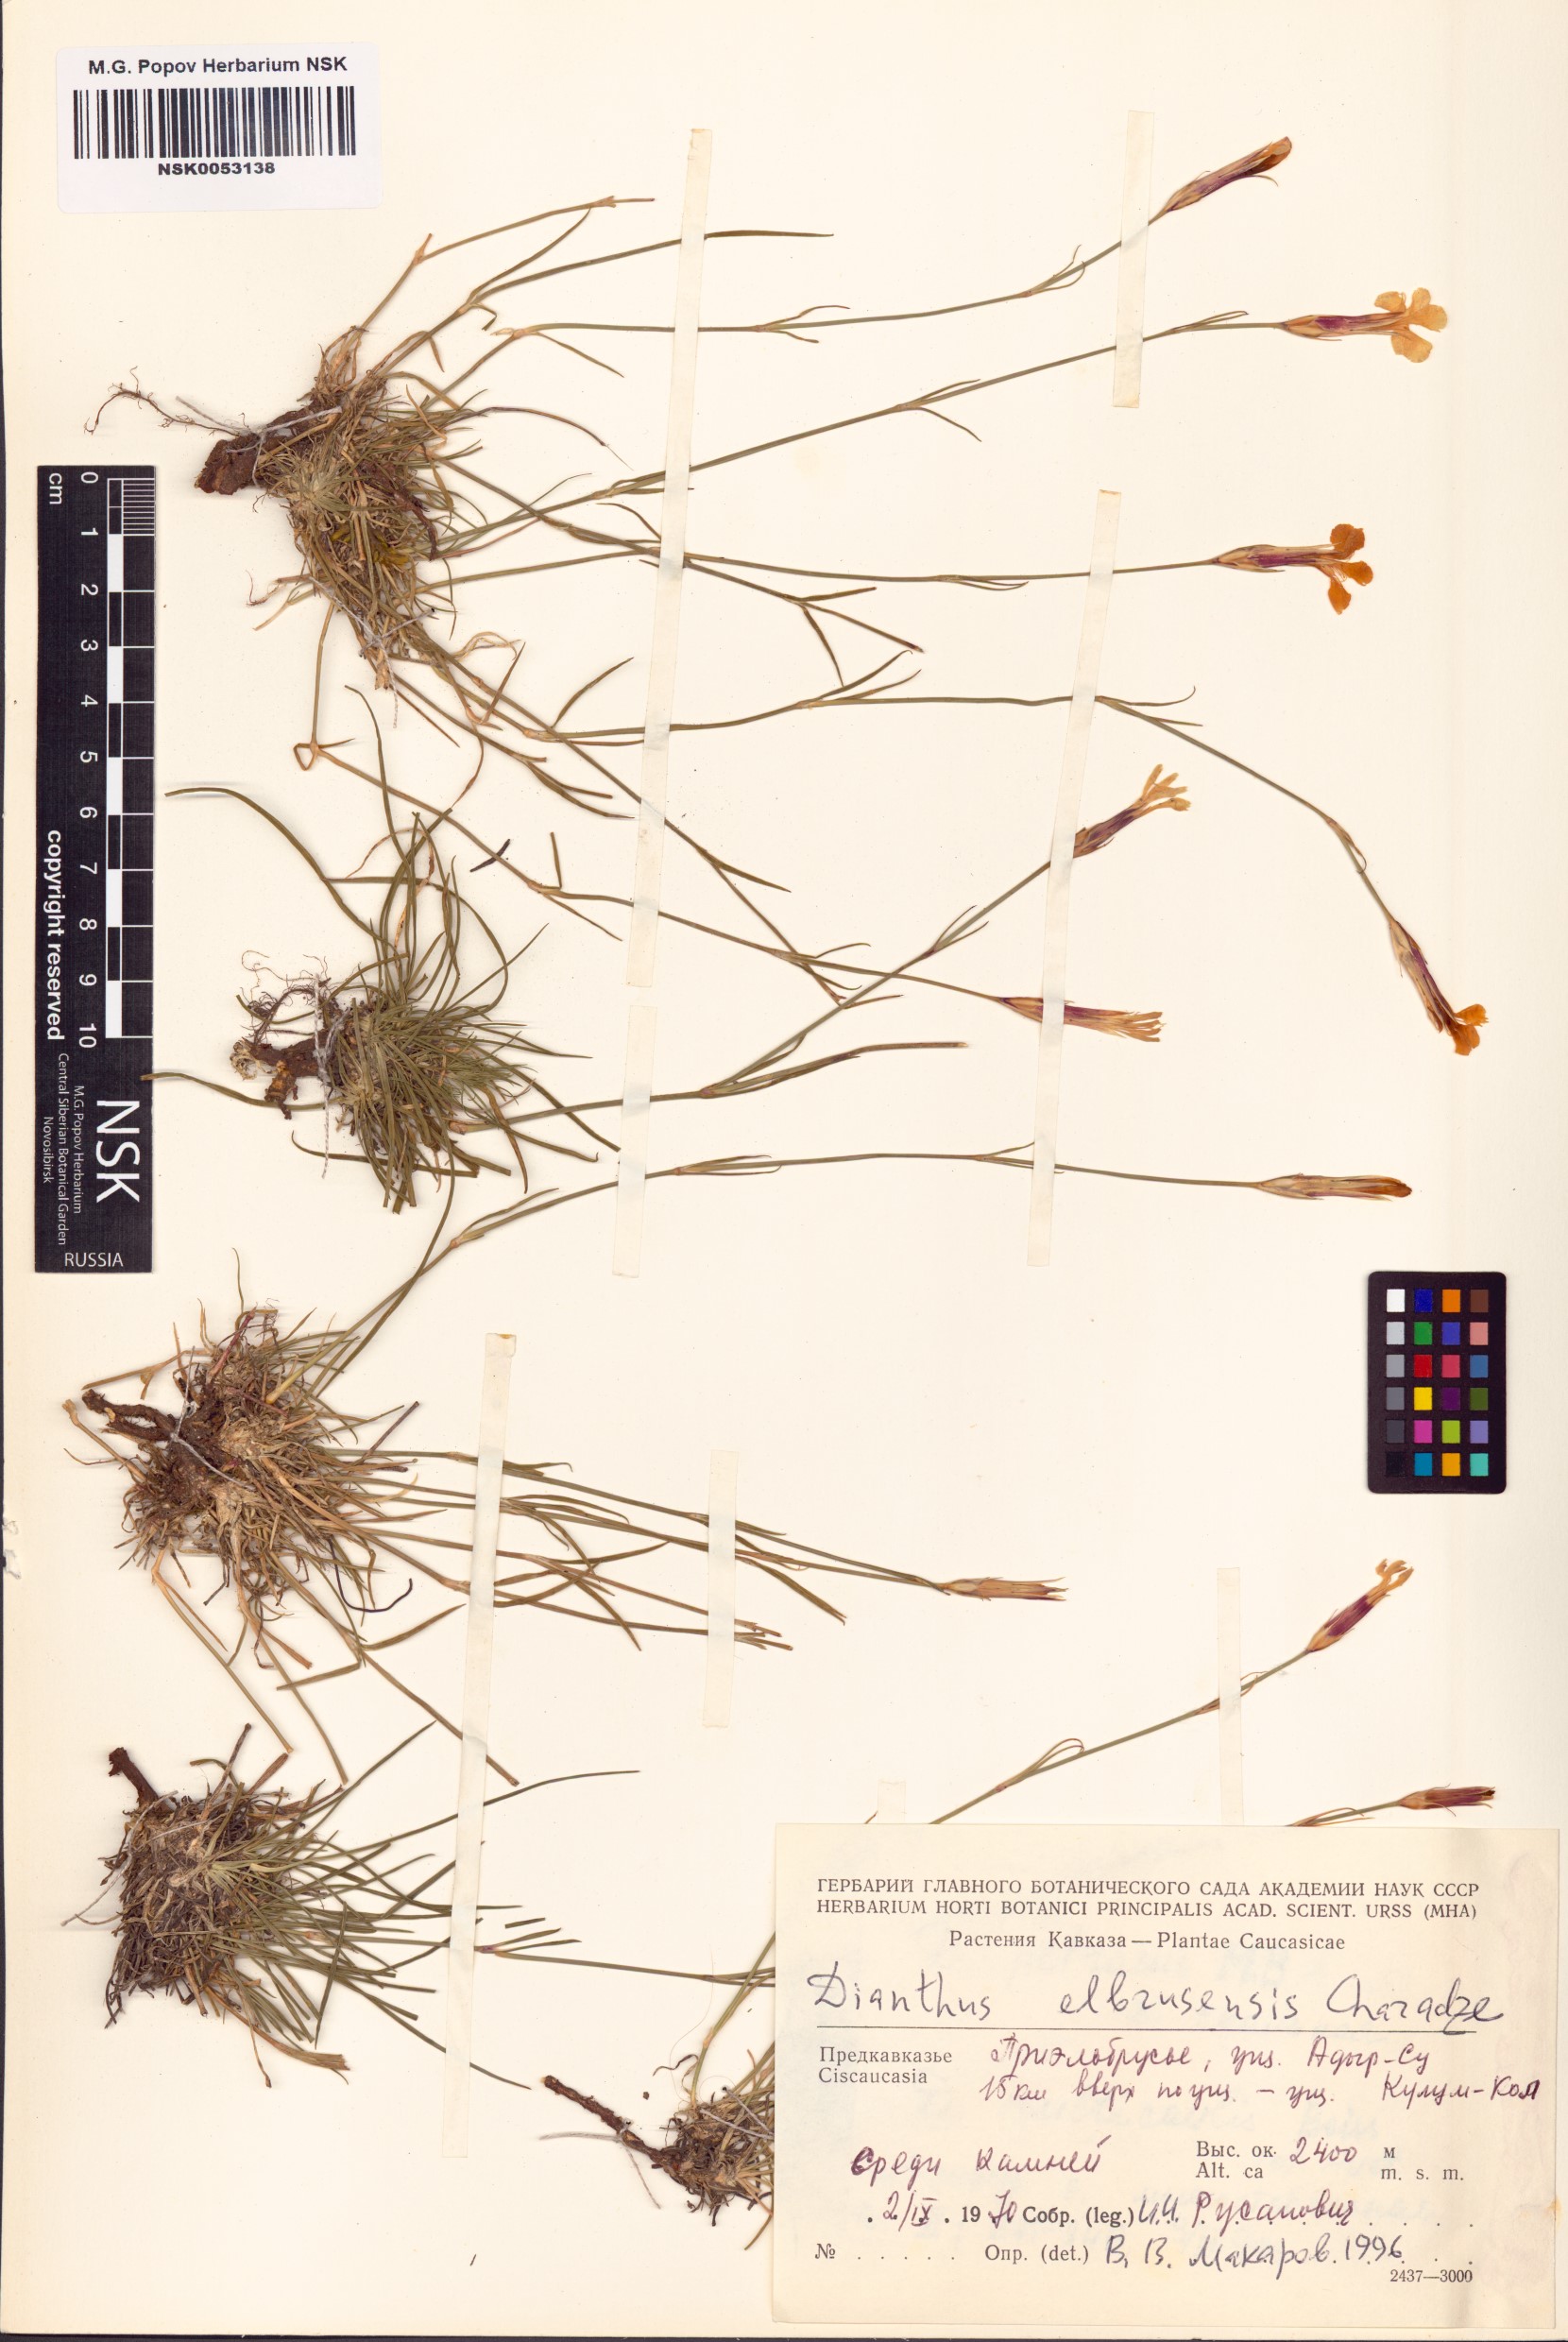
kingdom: Plantae
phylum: Tracheophyta
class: Magnoliopsida
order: Caryophyllales
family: Caryophyllaceae
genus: Dianthus
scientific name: Dianthus elbrusensis
